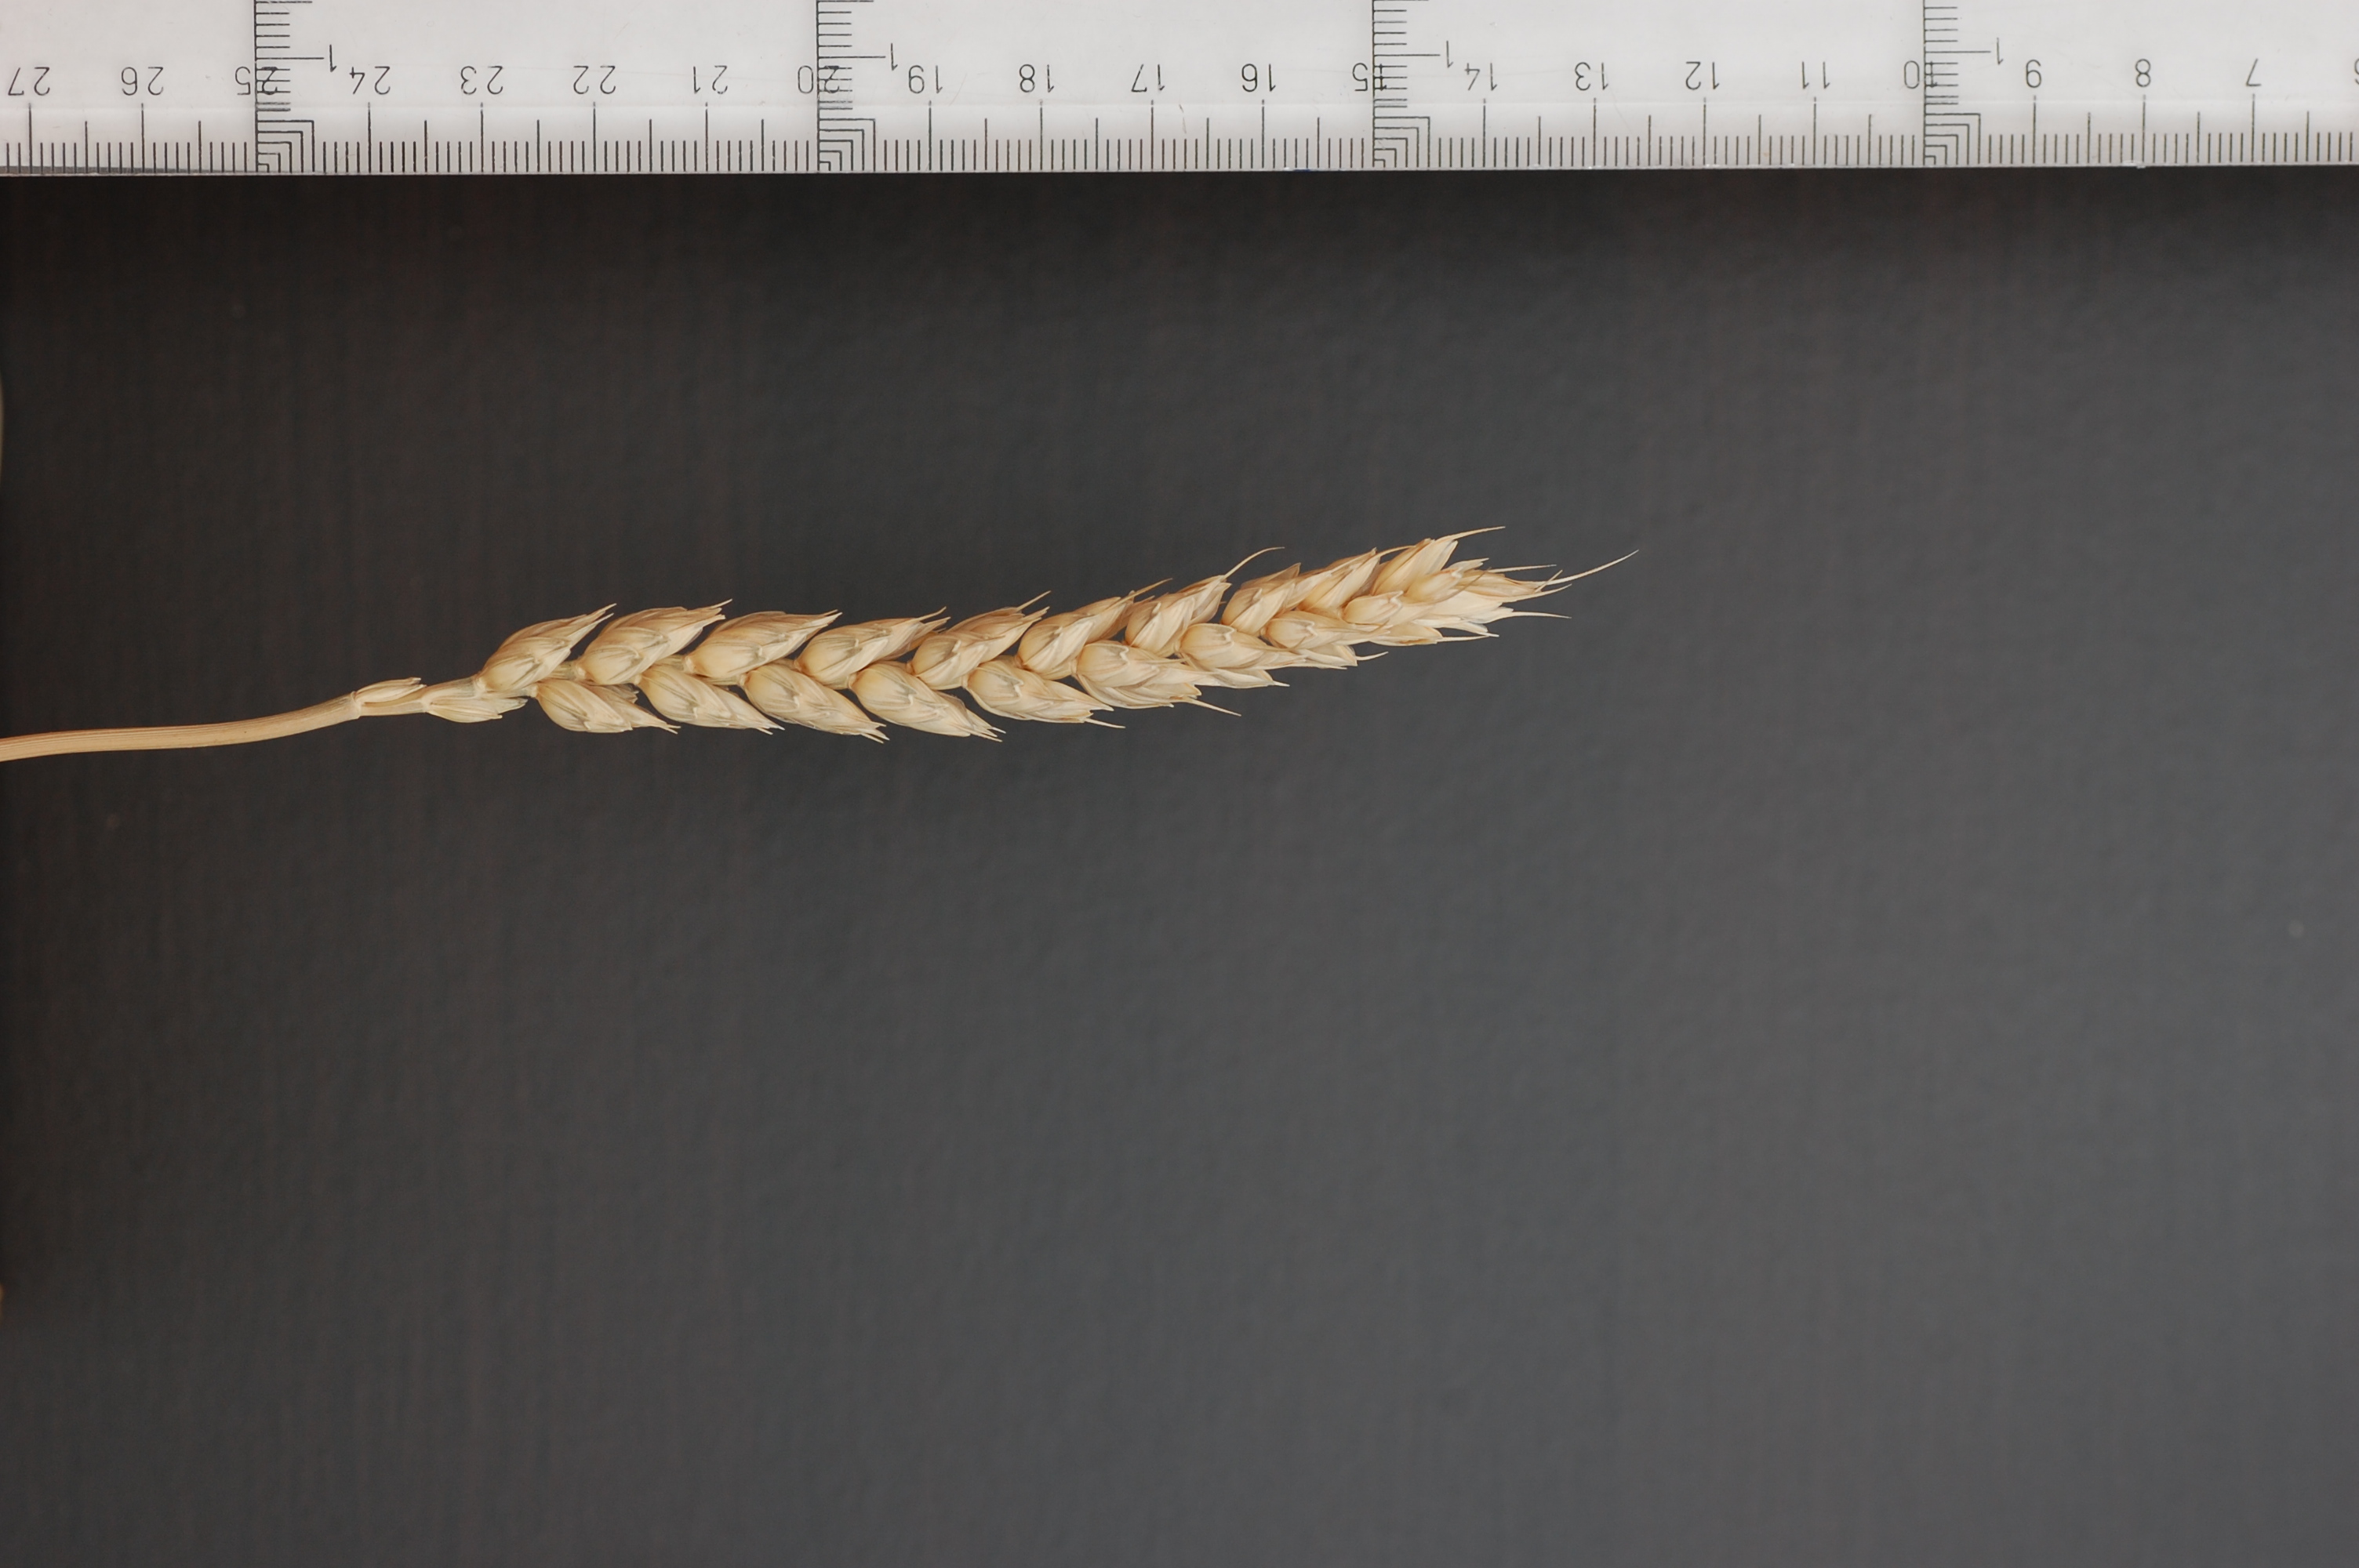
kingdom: Plantae
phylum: Tracheophyta
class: Liliopsida
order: Poales
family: Poaceae
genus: Triticum
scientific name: Triticum aestivum
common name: Common wheat
